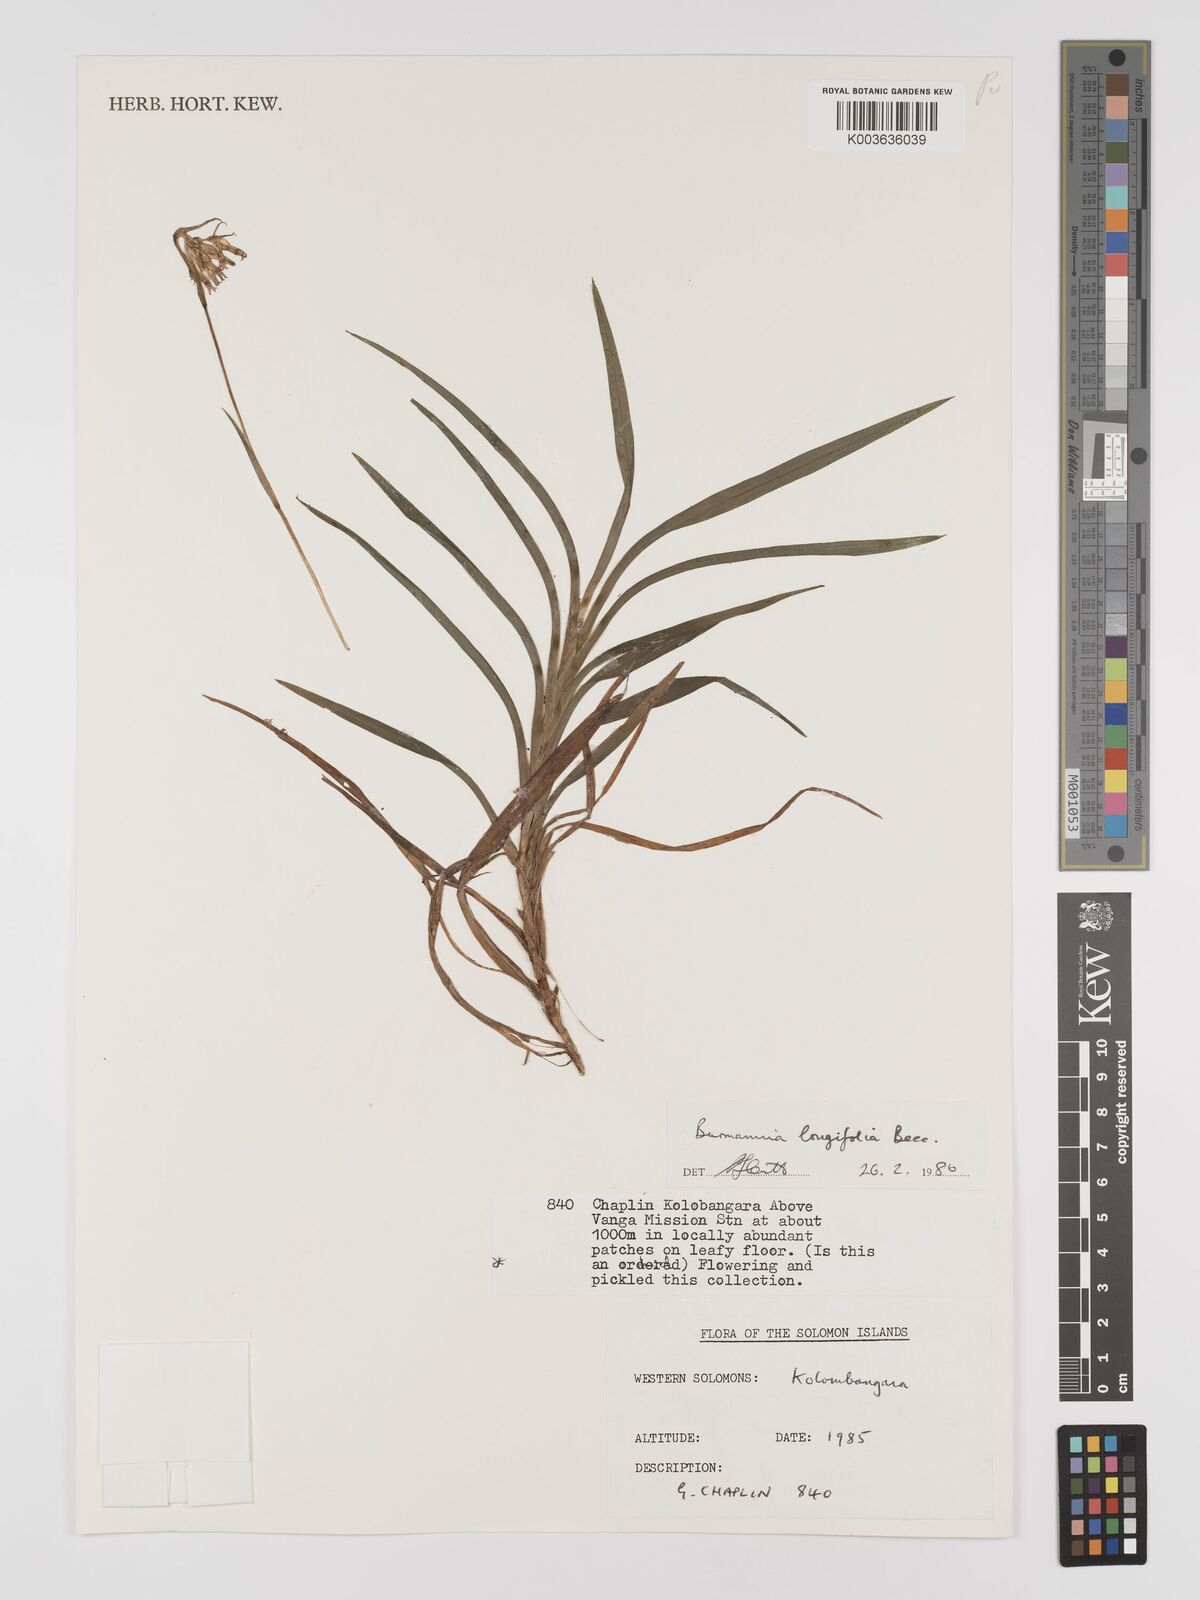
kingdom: Plantae
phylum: Tracheophyta
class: Liliopsida
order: Dioscoreales
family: Burmanniaceae
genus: Burmannia
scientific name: Burmannia longifolia
